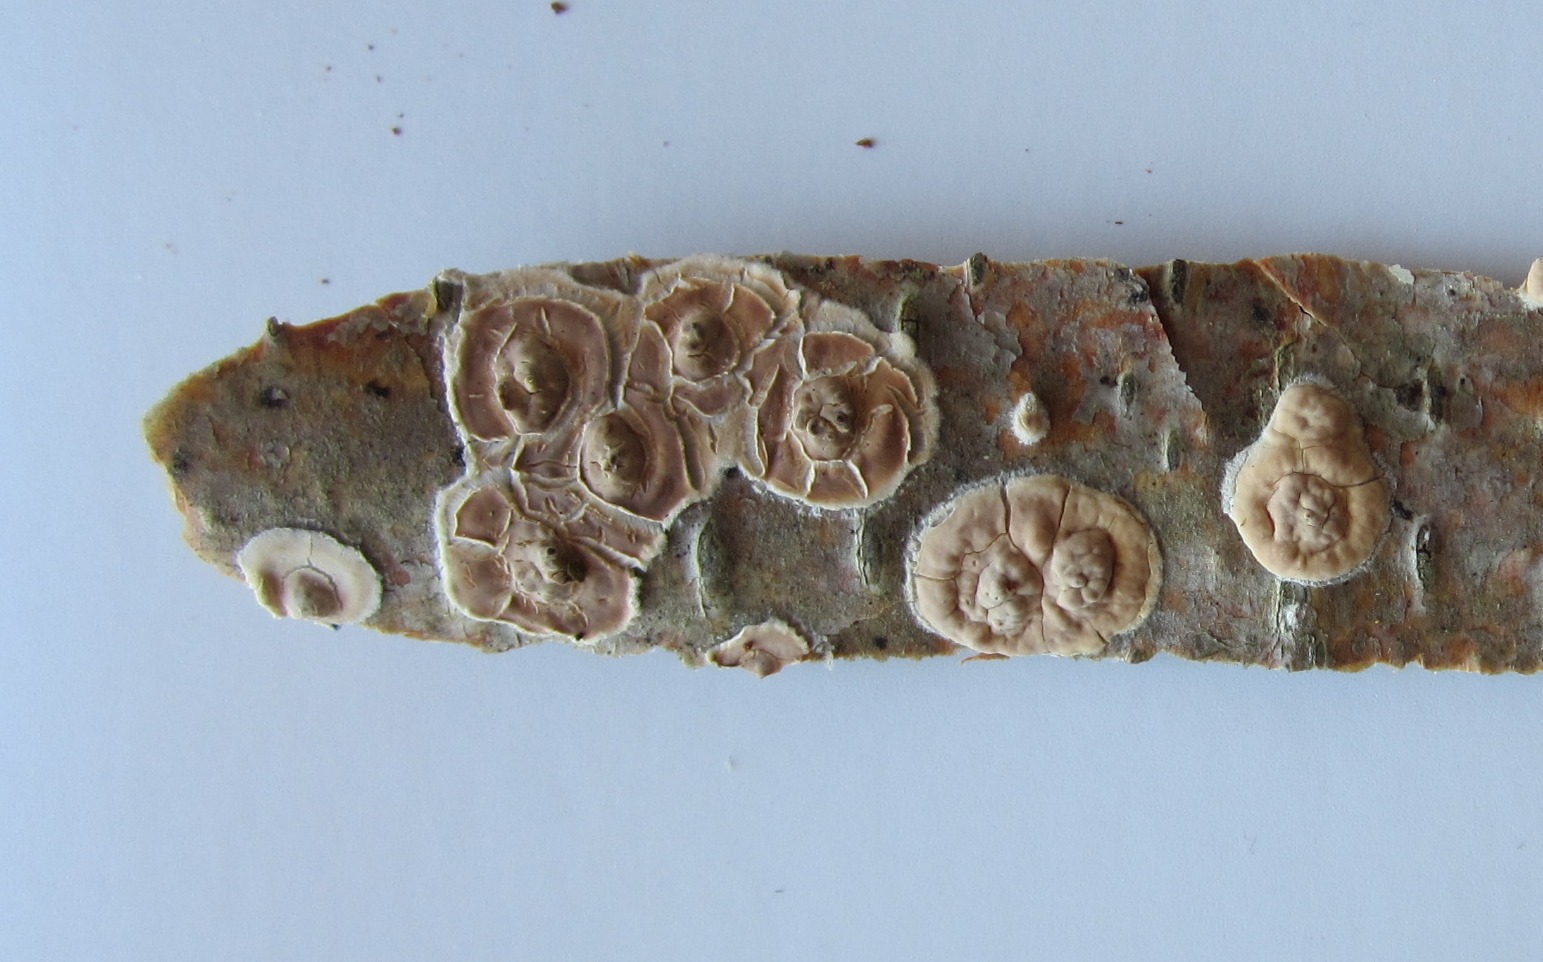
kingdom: Fungi
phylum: Basidiomycota
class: Agaricomycetes
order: Agaricales
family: Physalacriaceae
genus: Cylindrobasidium
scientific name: Cylindrobasidium evolvens
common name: sprækkehinde
